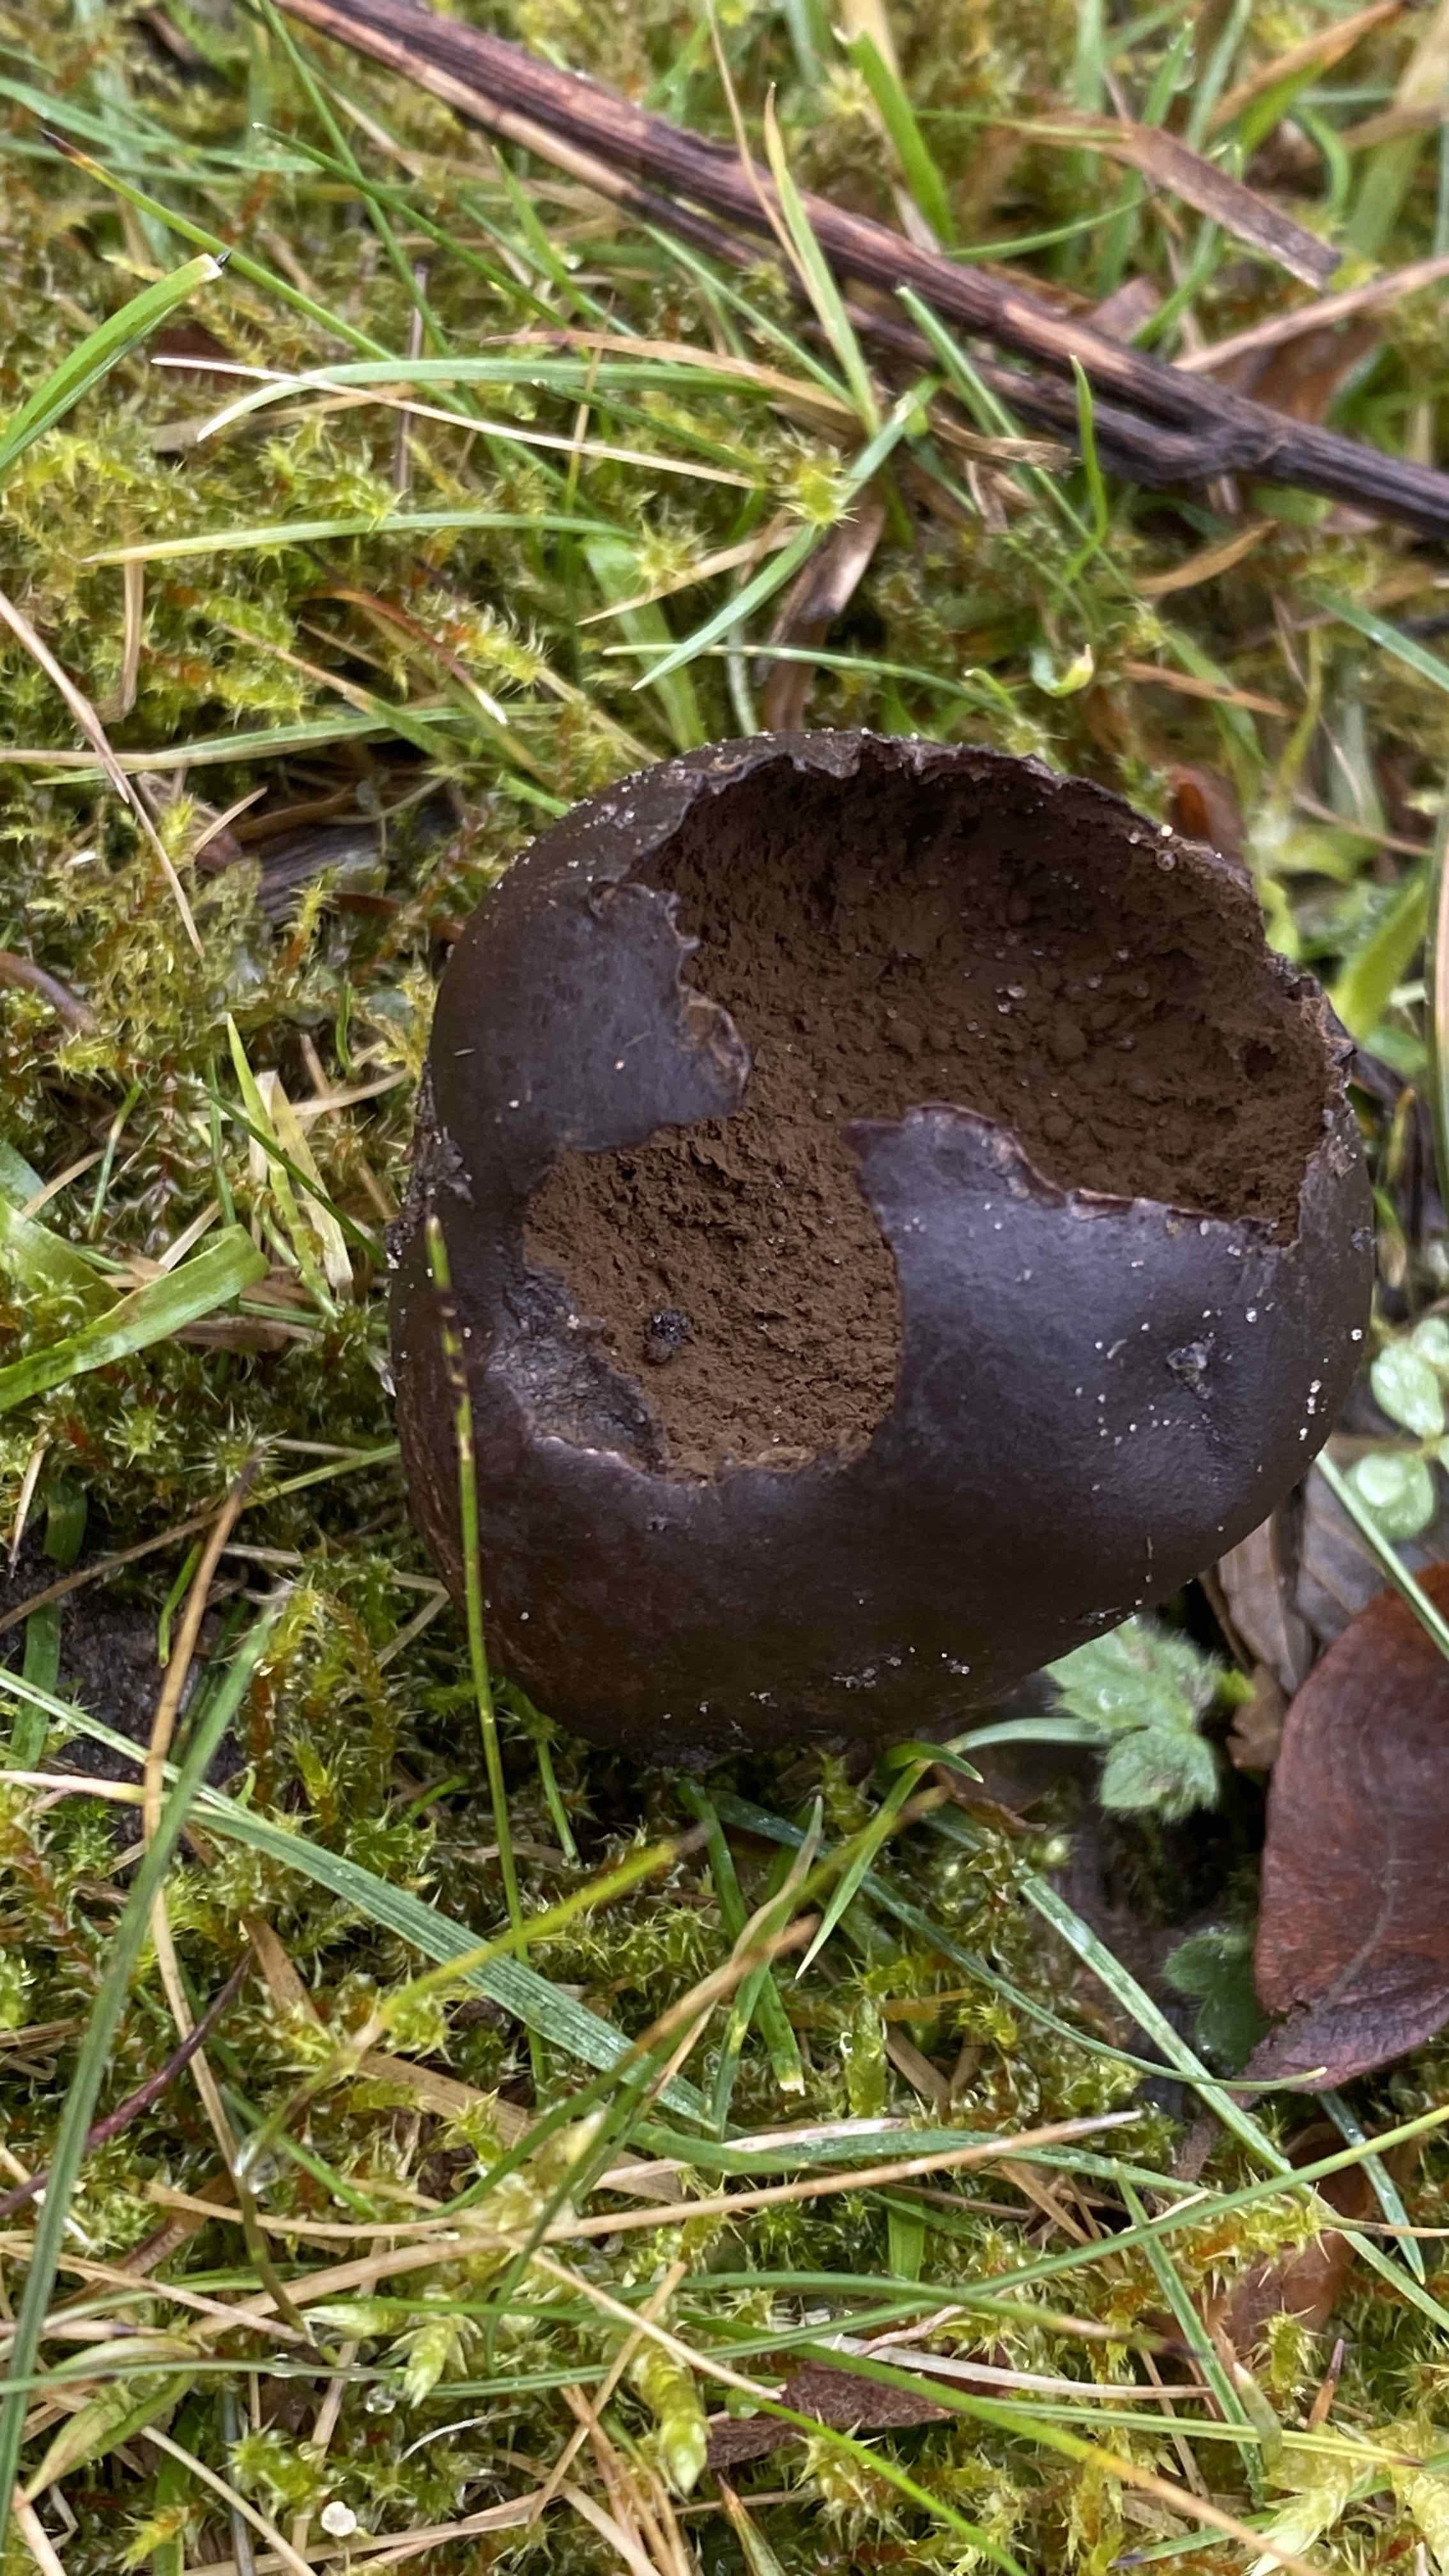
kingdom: Fungi
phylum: Basidiomycota
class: Agaricomycetes
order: Agaricales
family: Lycoperdaceae
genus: Bovista
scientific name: Bovista
